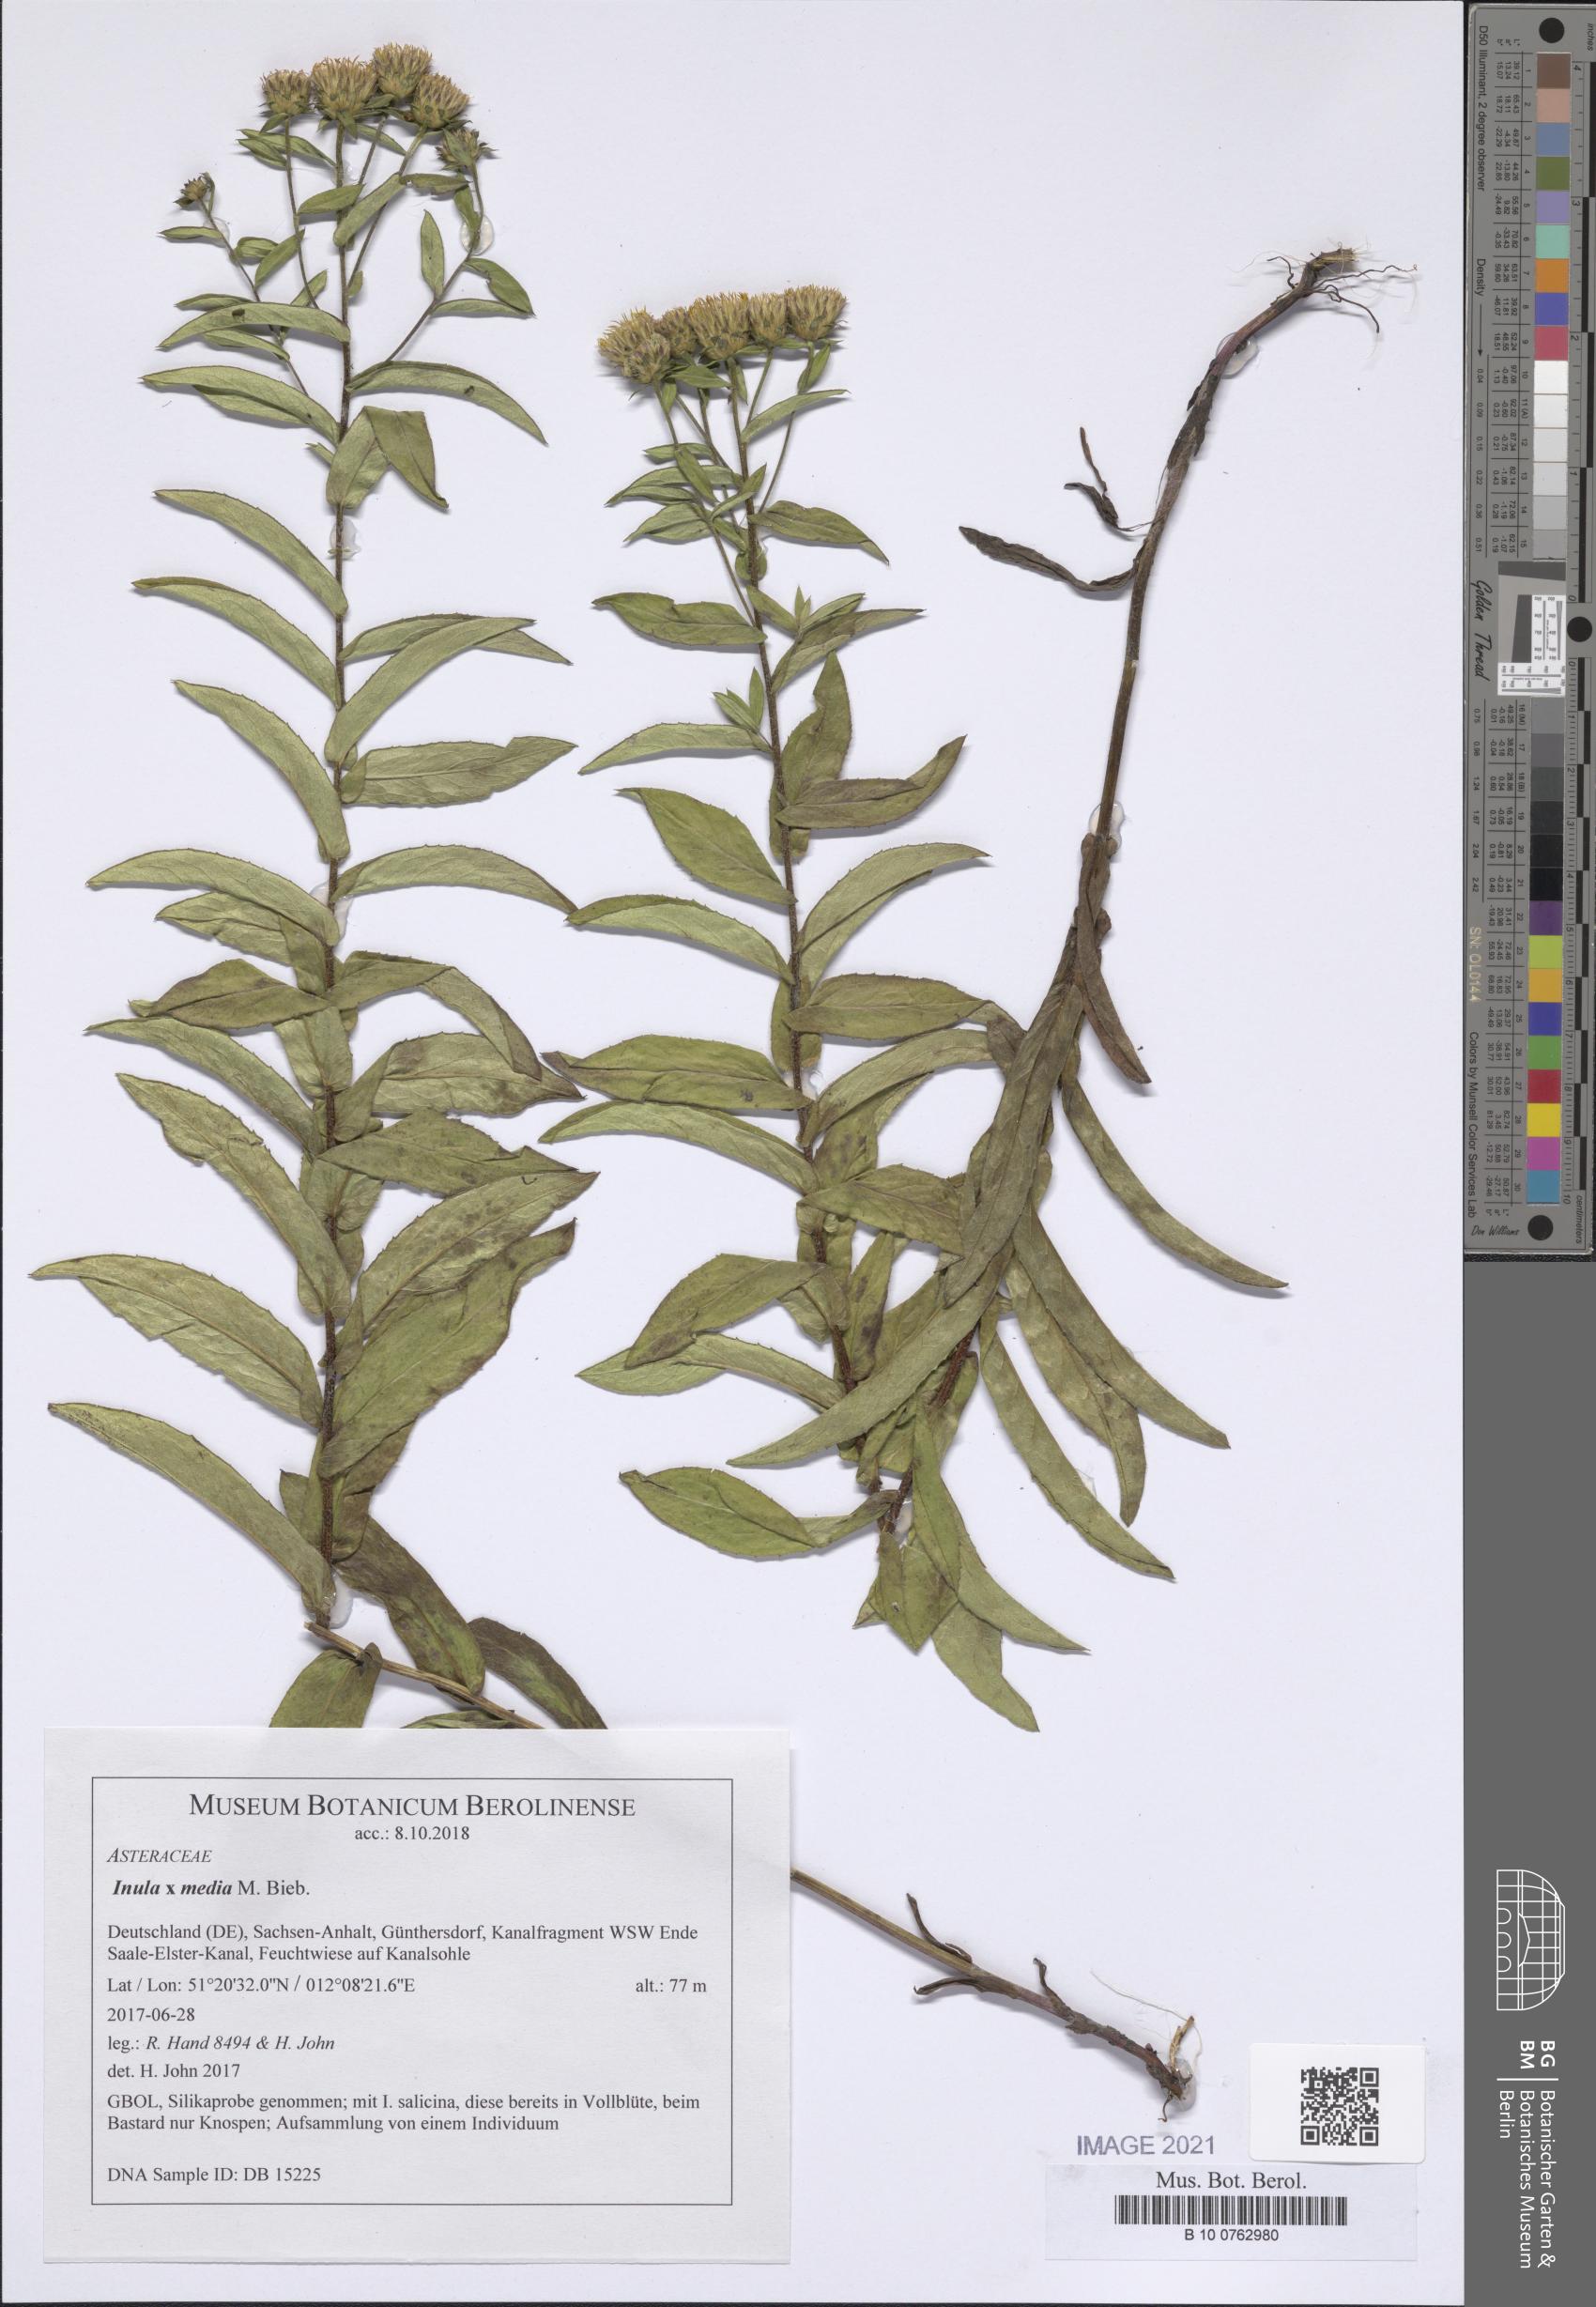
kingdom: Plantae
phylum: Tracheophyta
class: Magnoliopsida
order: Asterales
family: Asteraceae
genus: Pentanema
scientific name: Pentanema medium
